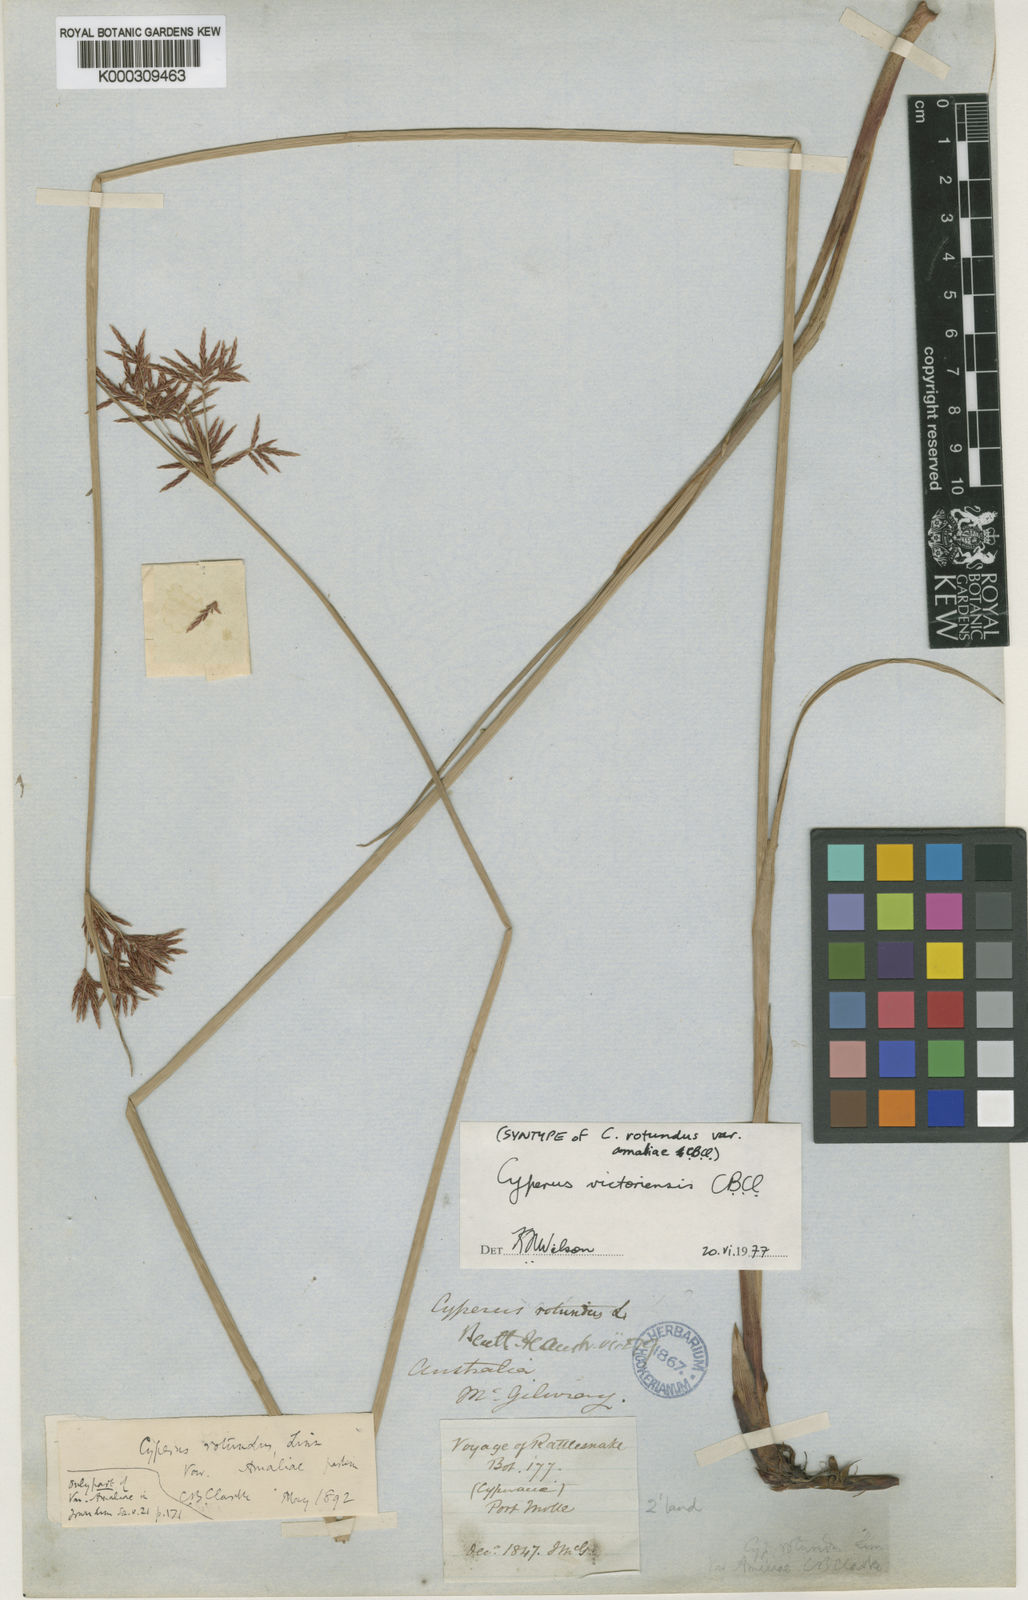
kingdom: Plantae
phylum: Tracheophyta
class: Liliopsida
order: Poales
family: Cyperaceae
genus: Cyperus
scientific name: Cyperus victoriensis
